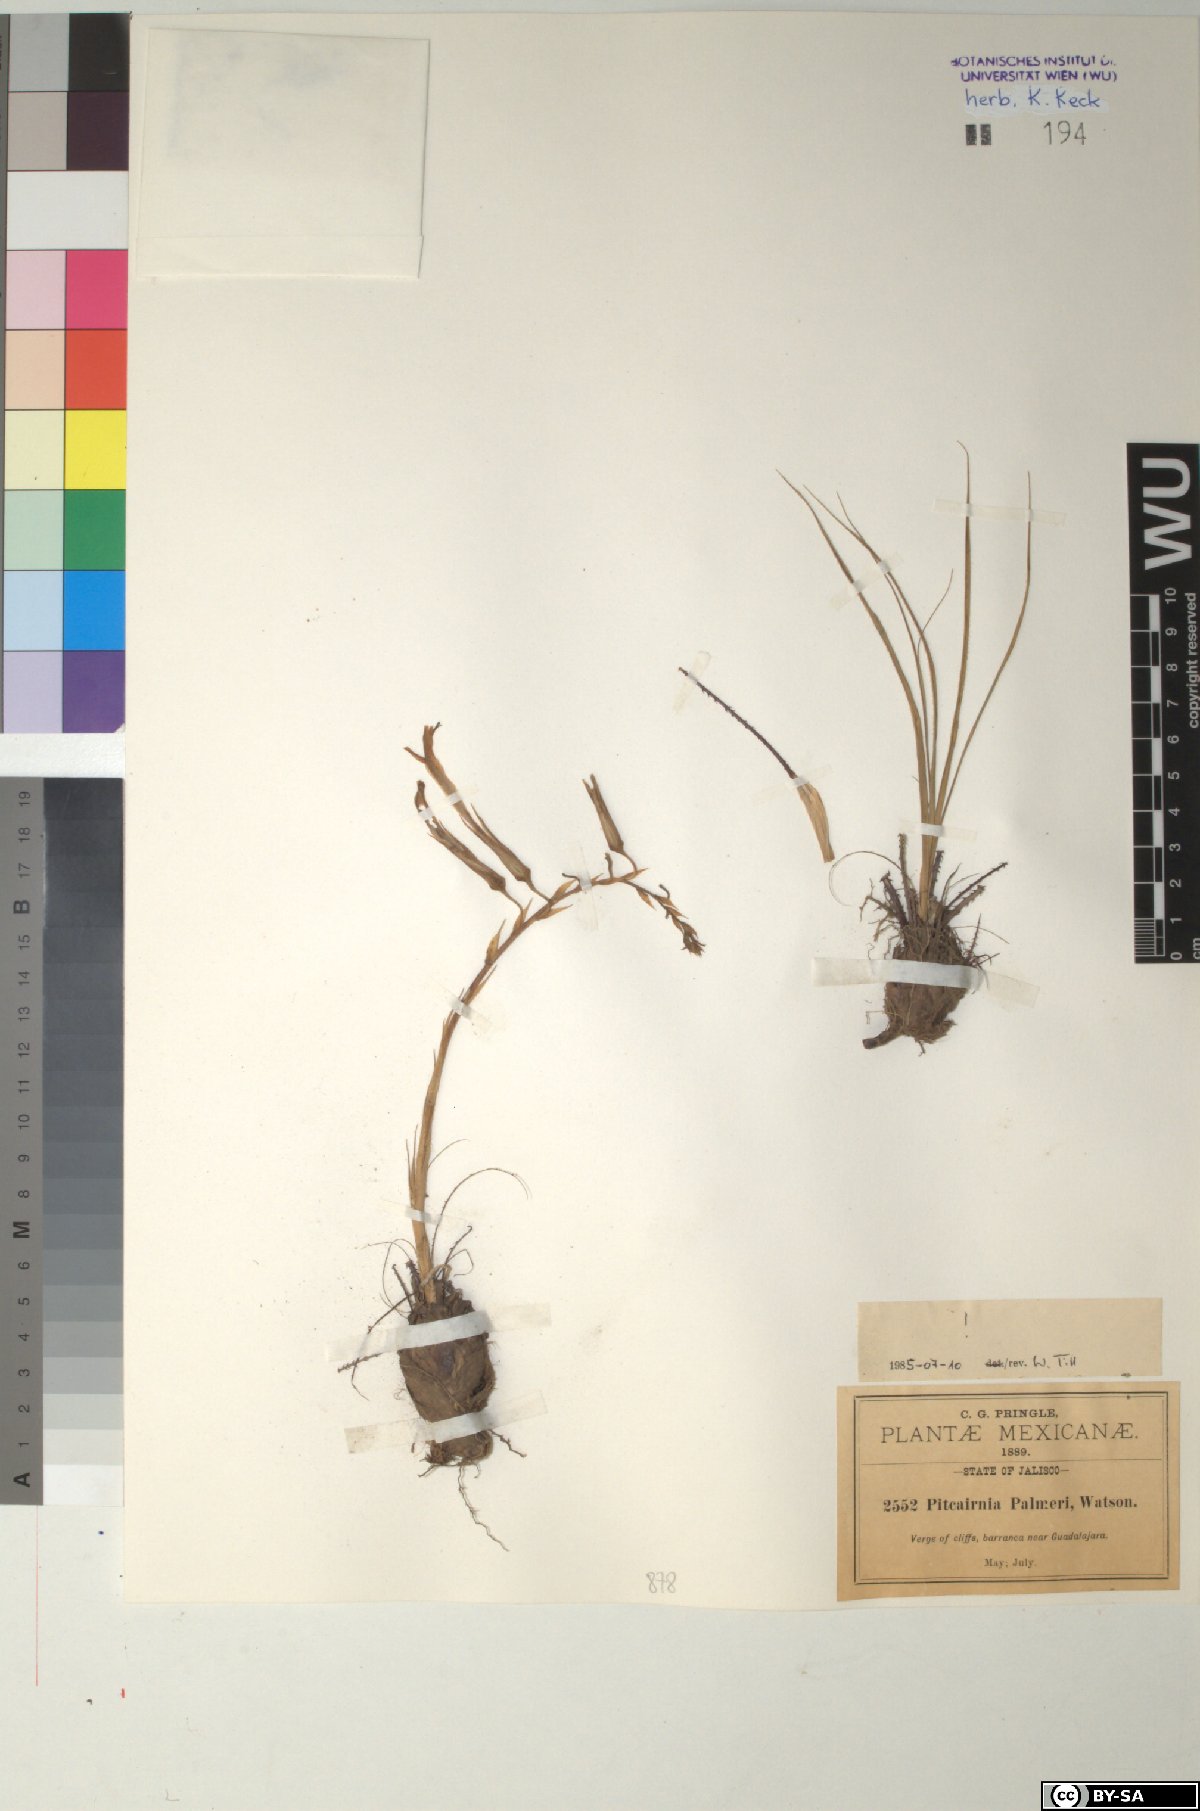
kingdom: Plantae
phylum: Tracheophyta
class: Liliopsida
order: Poales
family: Bromeliaceae
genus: Pitcairnia
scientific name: Pitcairnia palmeri
